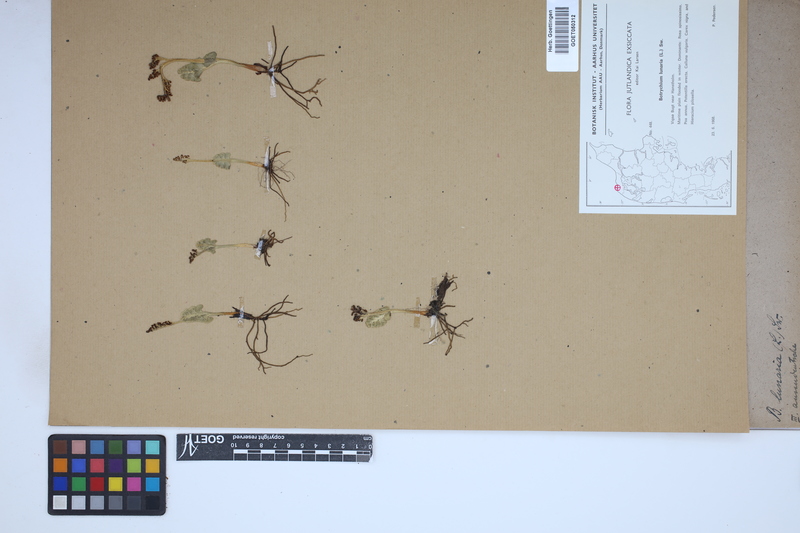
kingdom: Plantae
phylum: Tracheophyta
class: Polypodiopsida
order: Ophioglossales
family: Ophioglossaceae
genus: Botrychium
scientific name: Botrychium lunaria
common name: Moonwort
